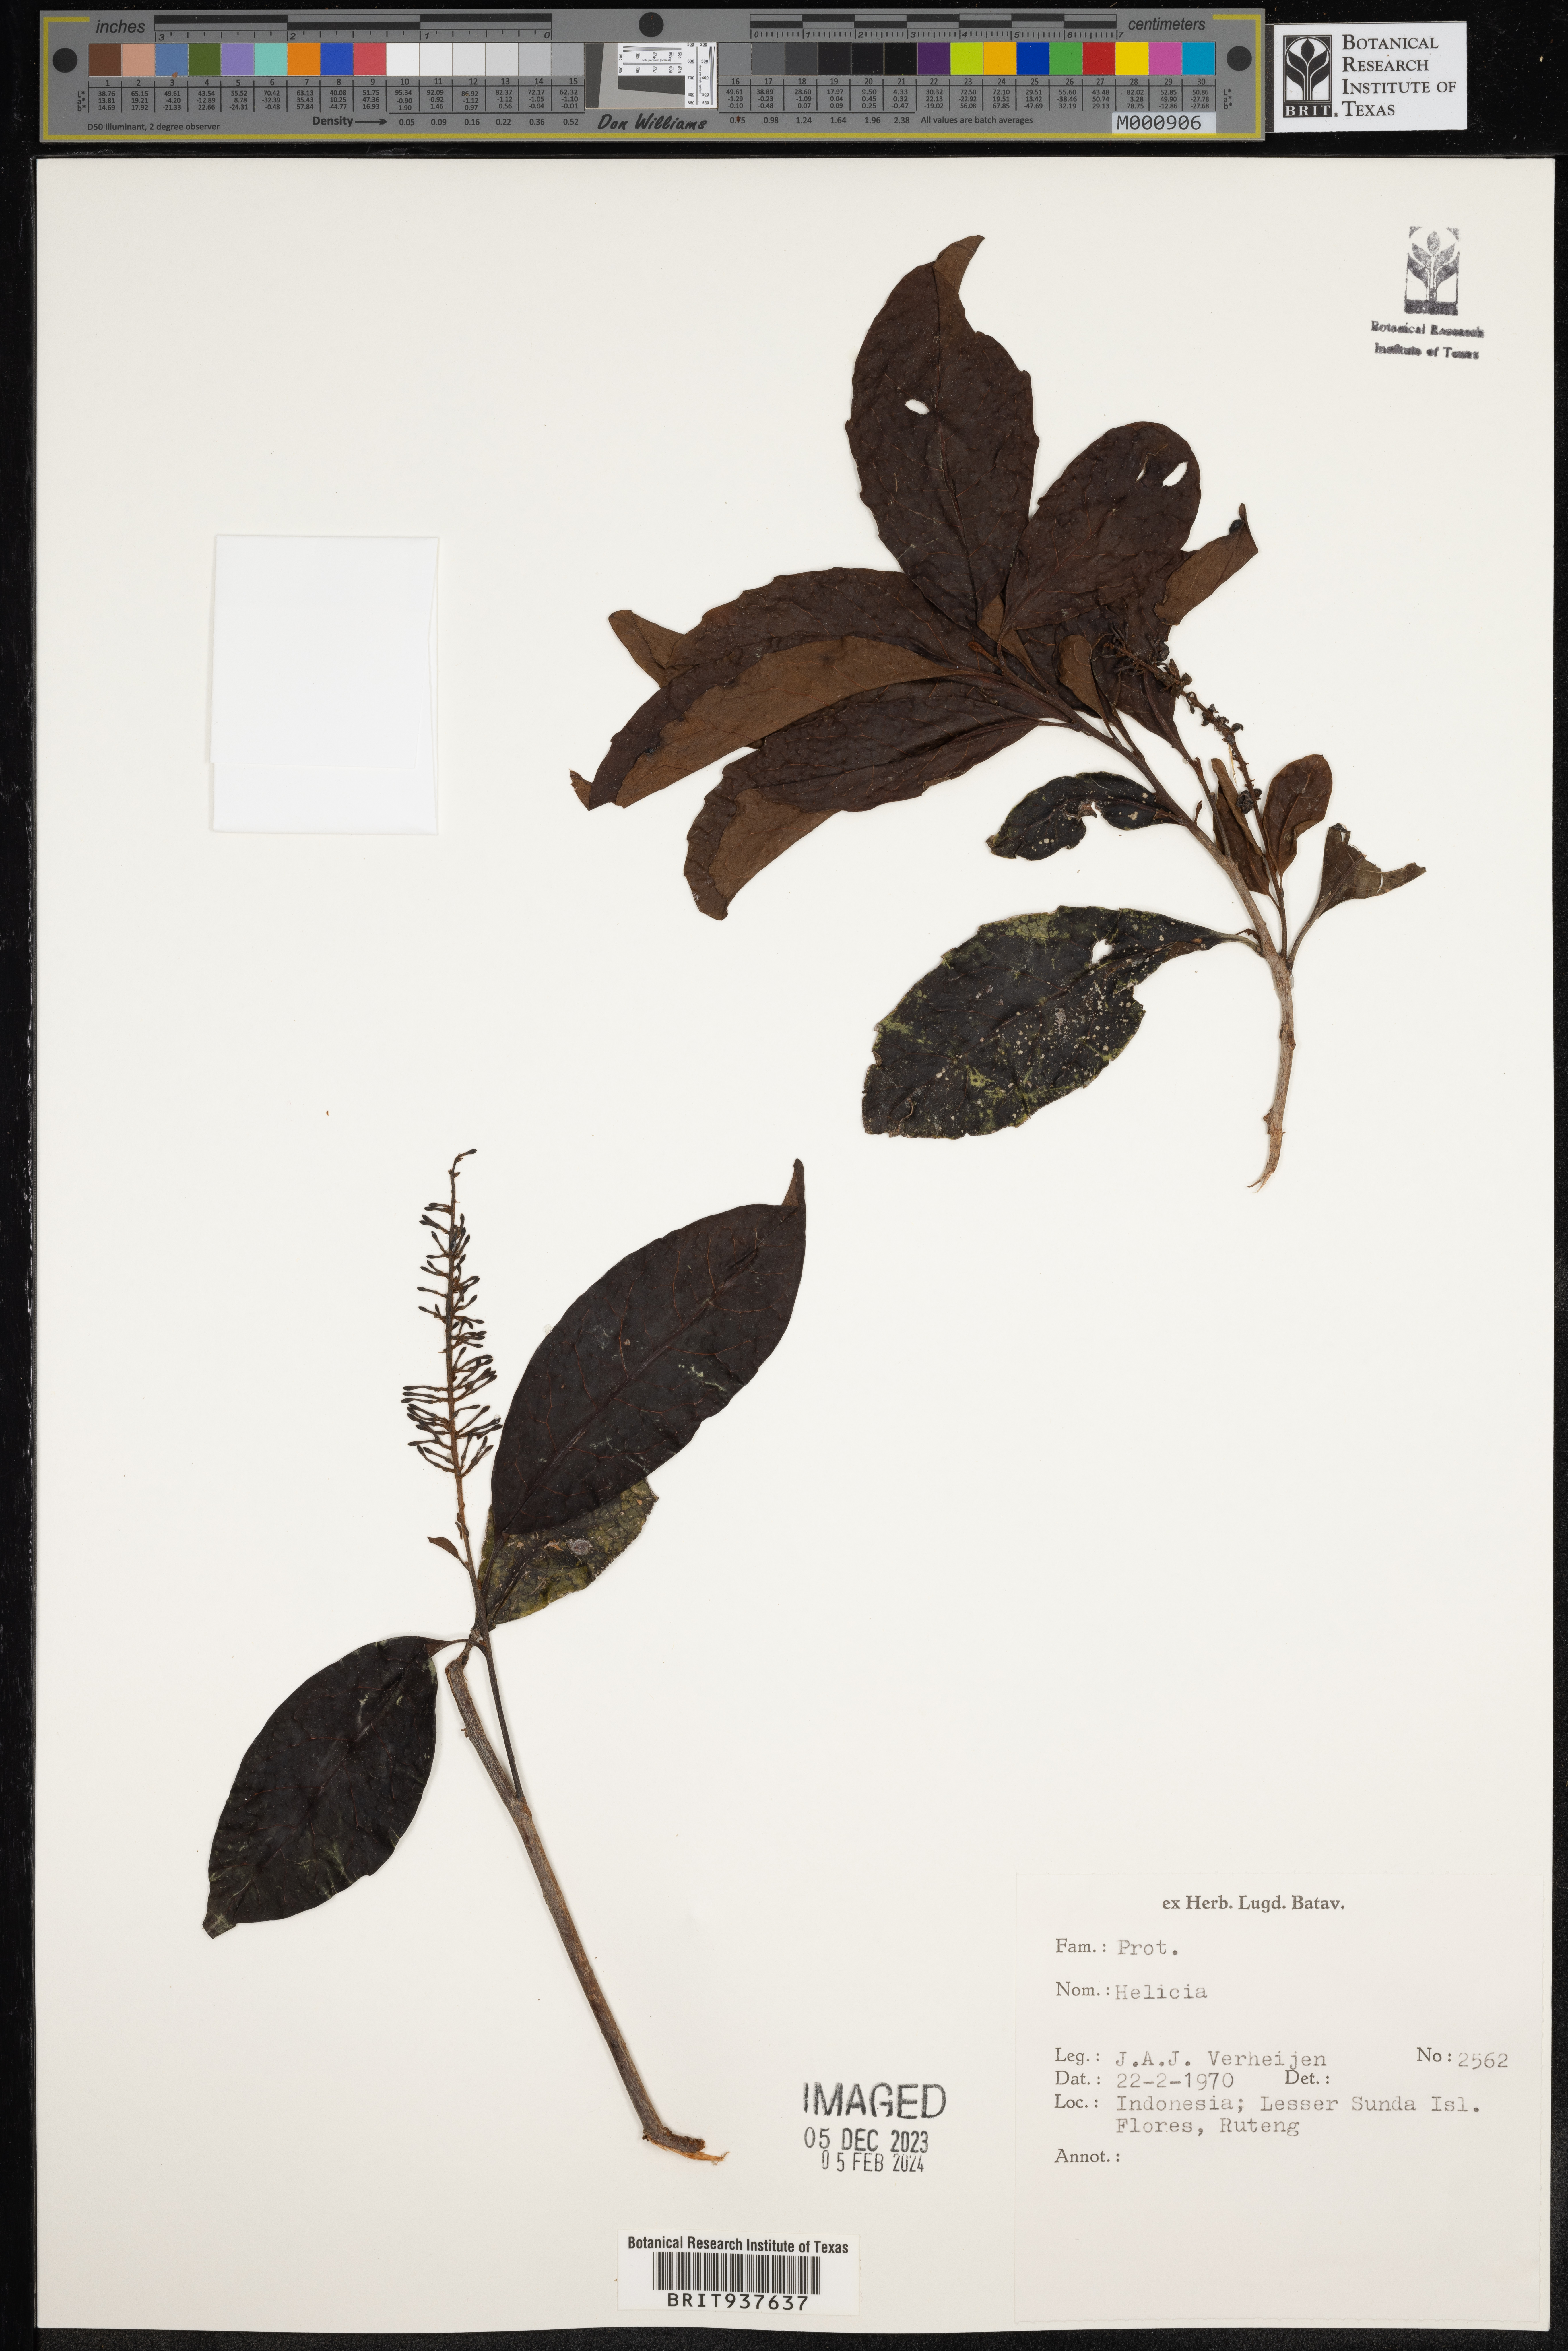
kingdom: Plantae
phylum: Tracheophyta
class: Magnoliopsida
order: Proteales
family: Proteaceae
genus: Stenocarpus
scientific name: Stenocarpus
